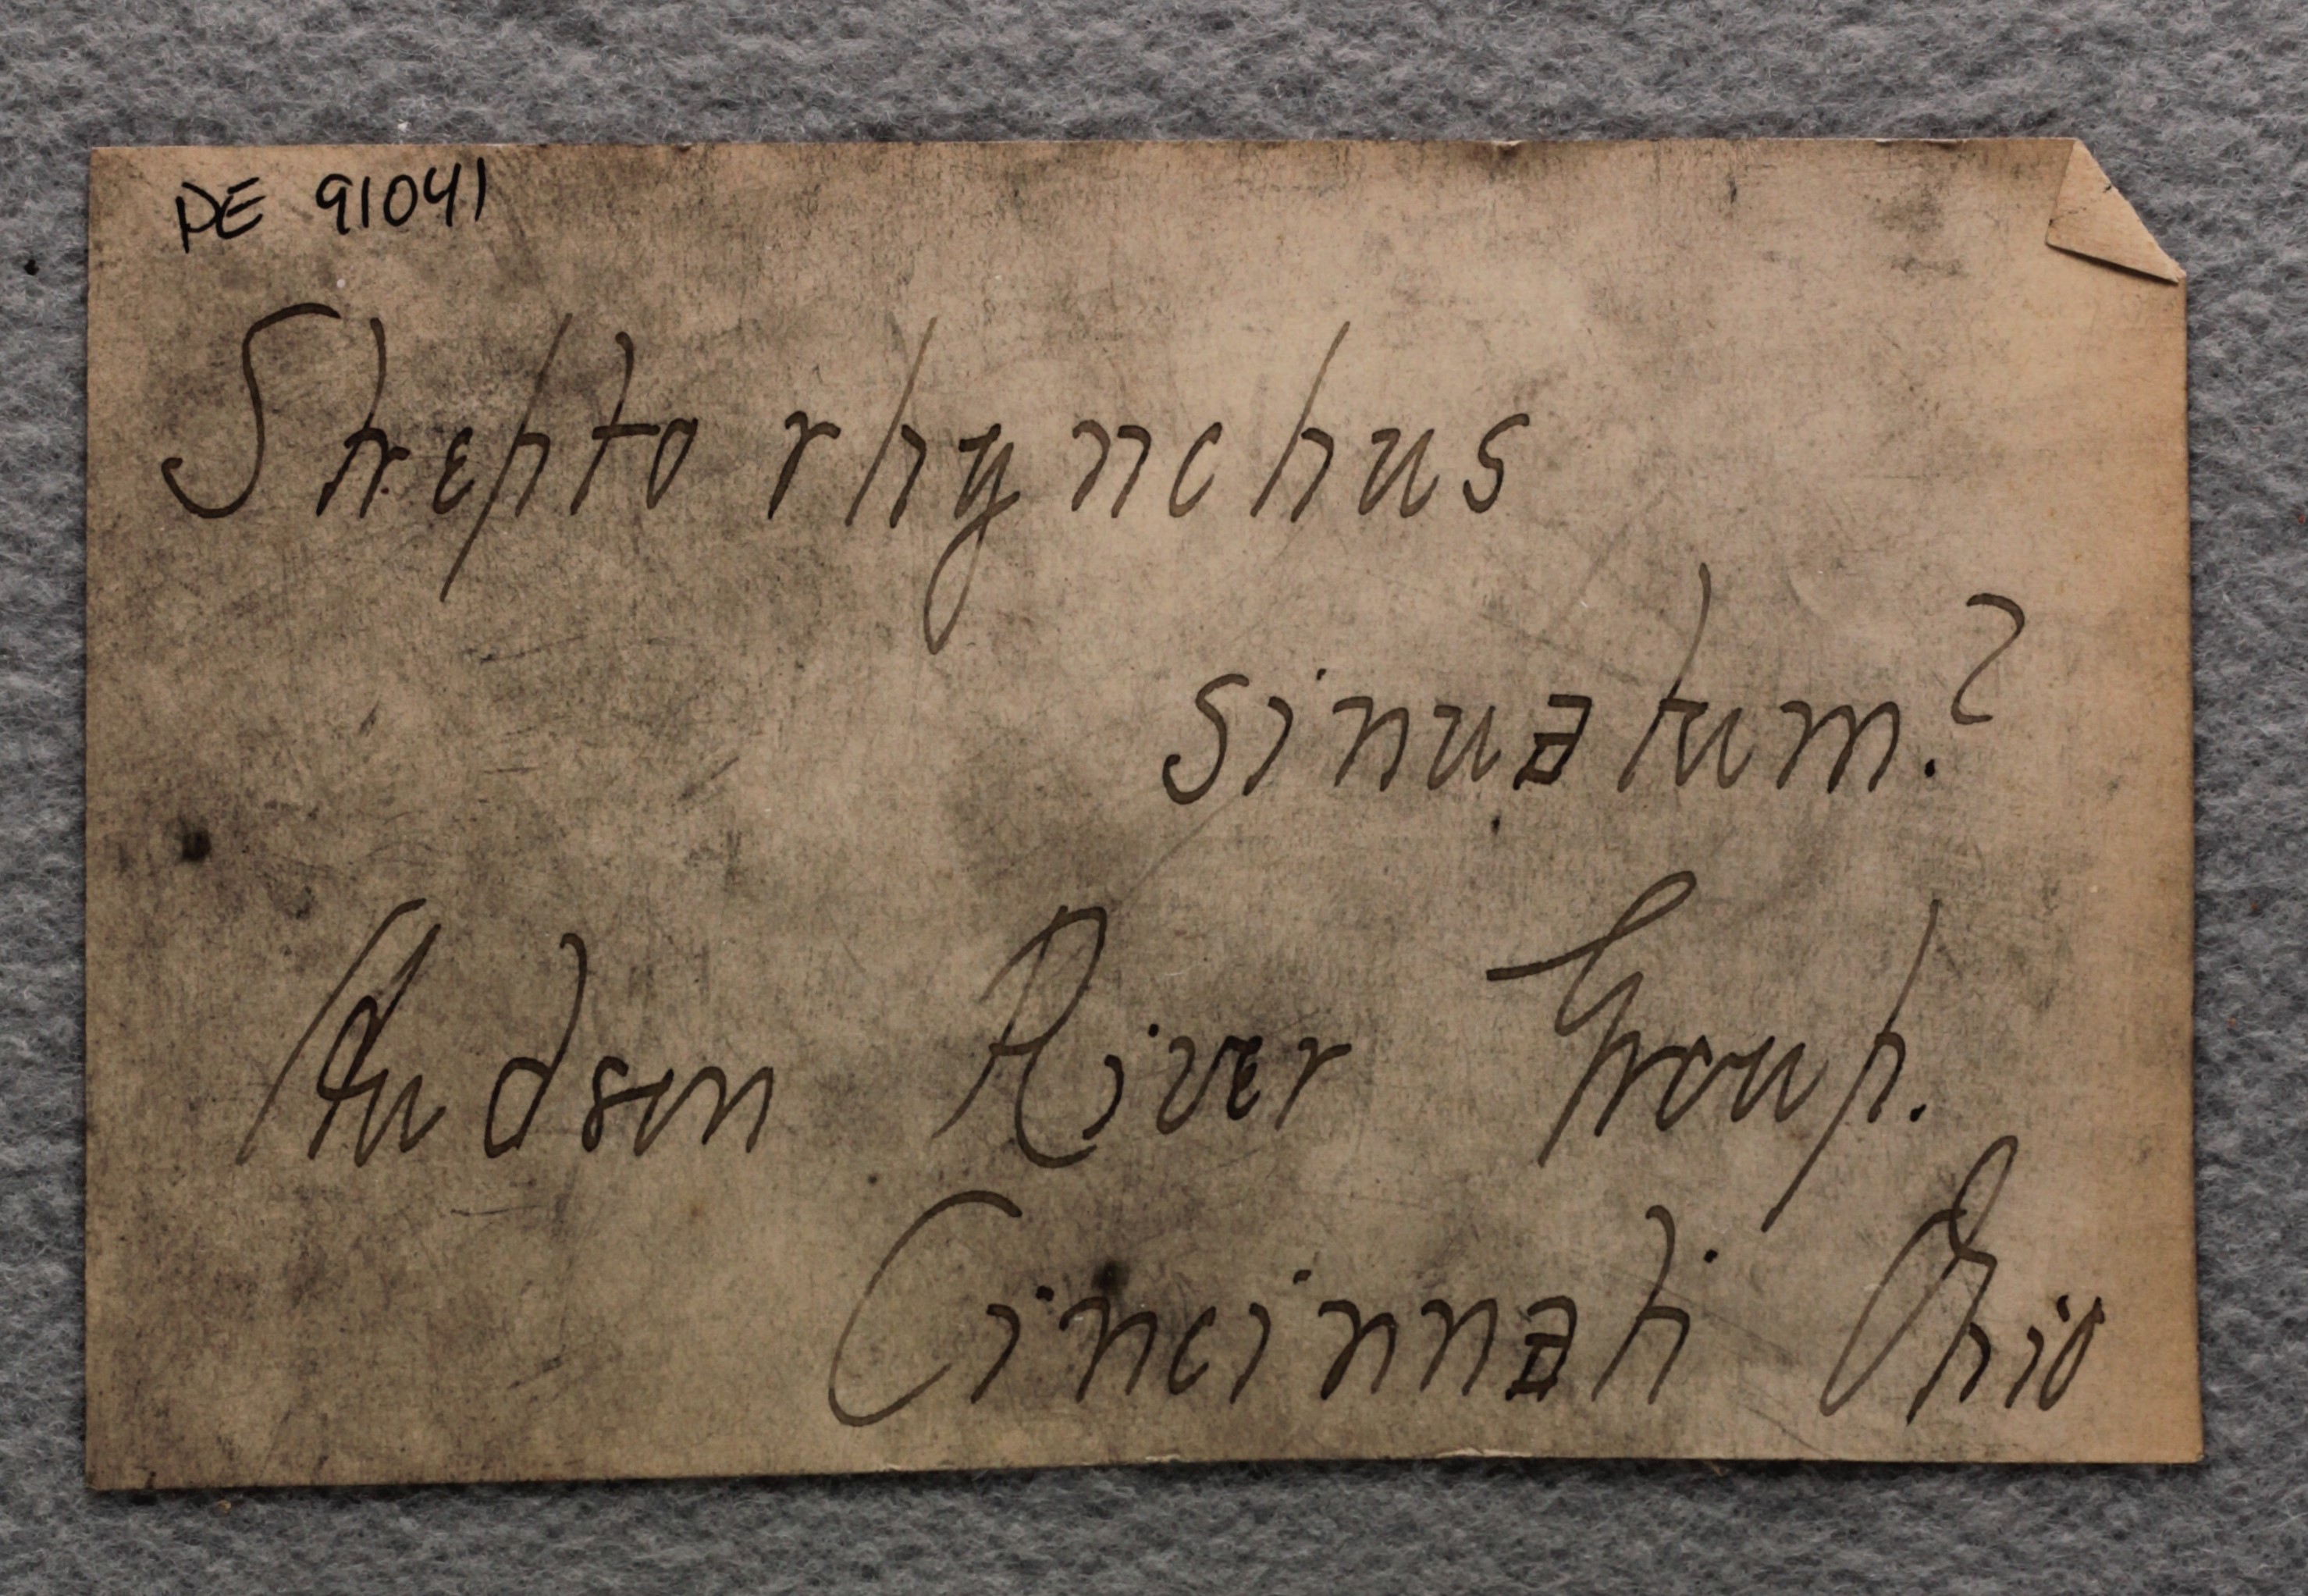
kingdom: Animalia
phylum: Brachiopoda
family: Streptorhynchidae
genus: Streptorhynchus
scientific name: Streptorhynchus Canavaria sinuata
